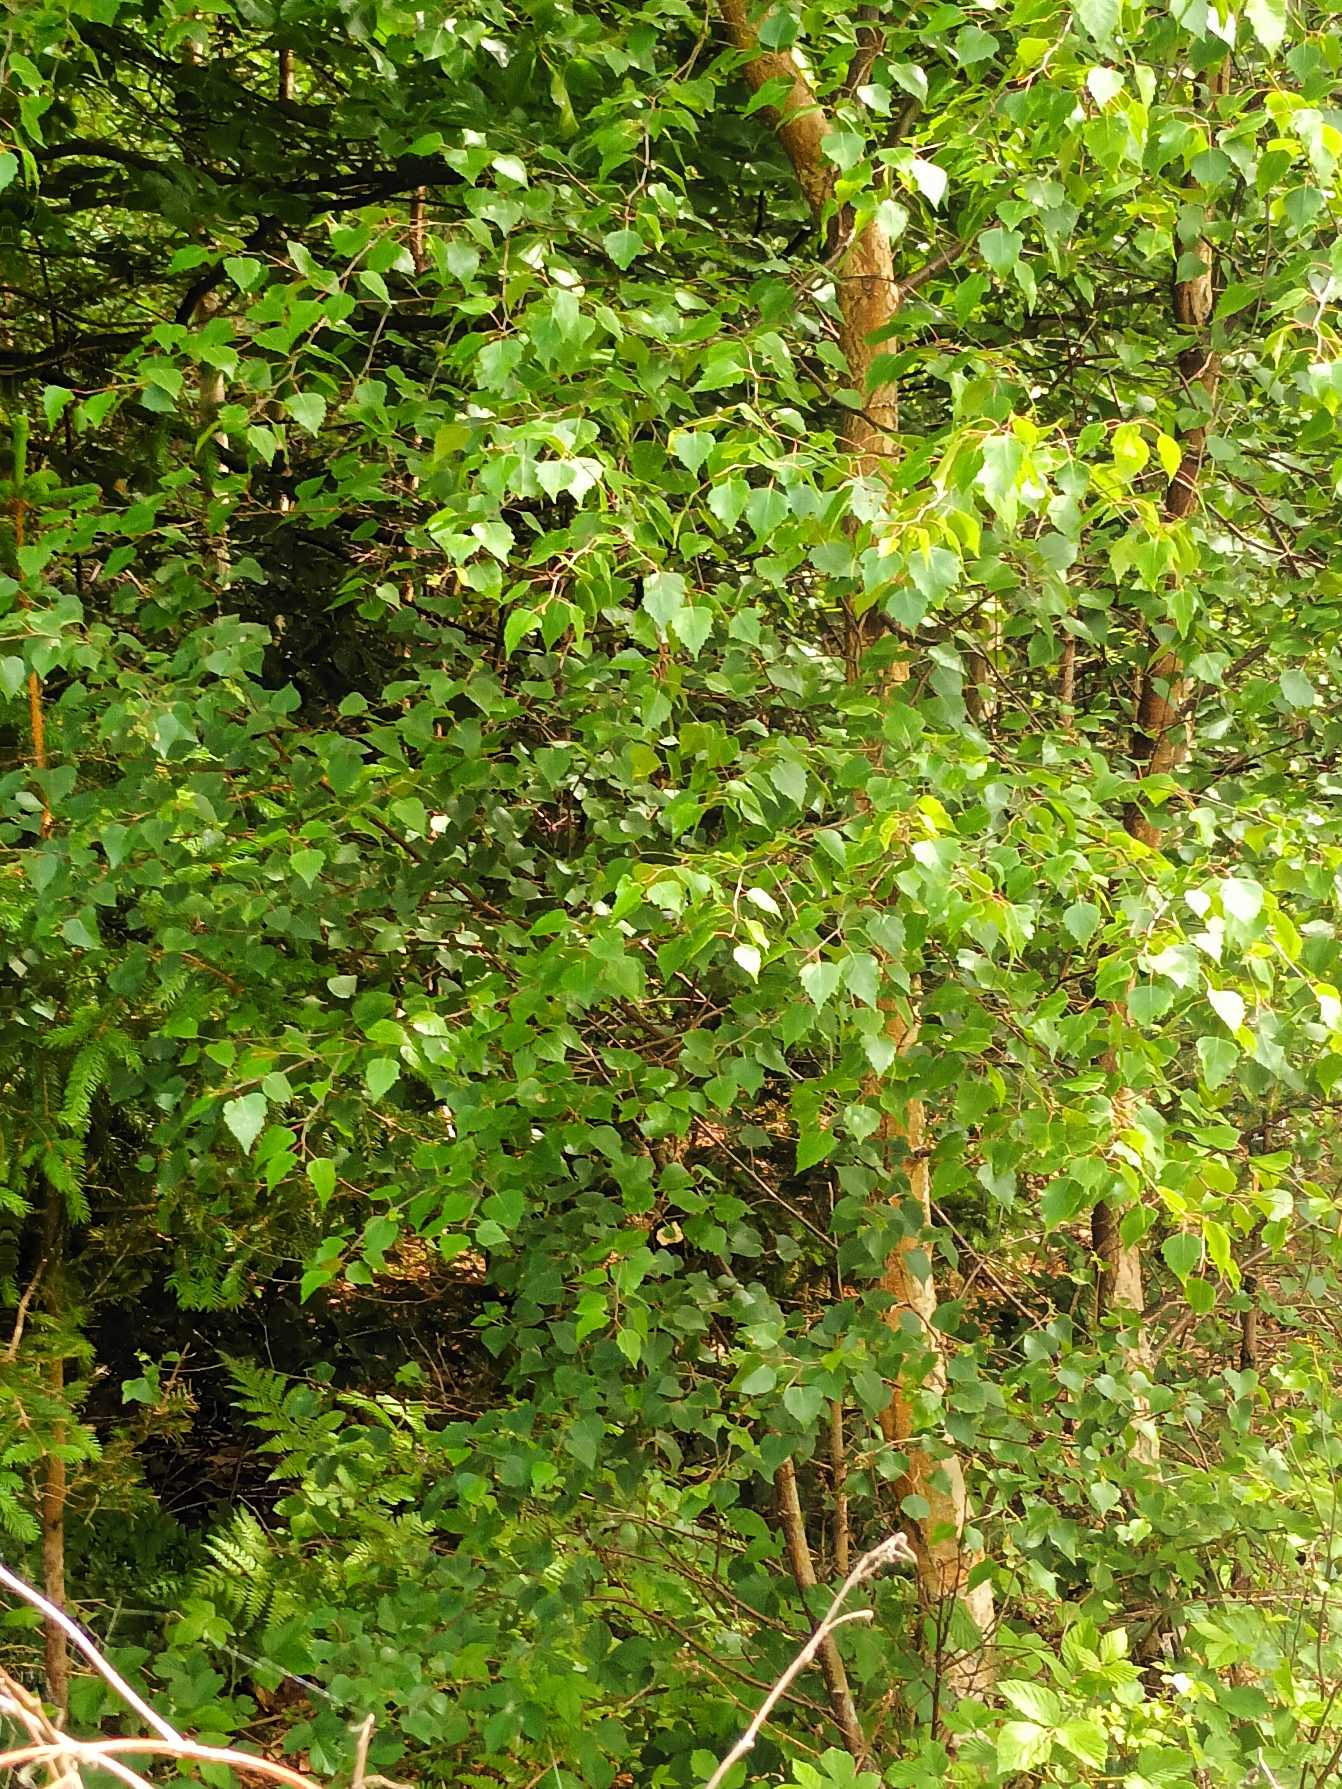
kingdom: Plantae
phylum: Tracheophyta
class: Magnoliopsida
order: Fagales
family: Betulaceae
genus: Betula
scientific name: Betula pendula
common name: Vorte-birk
